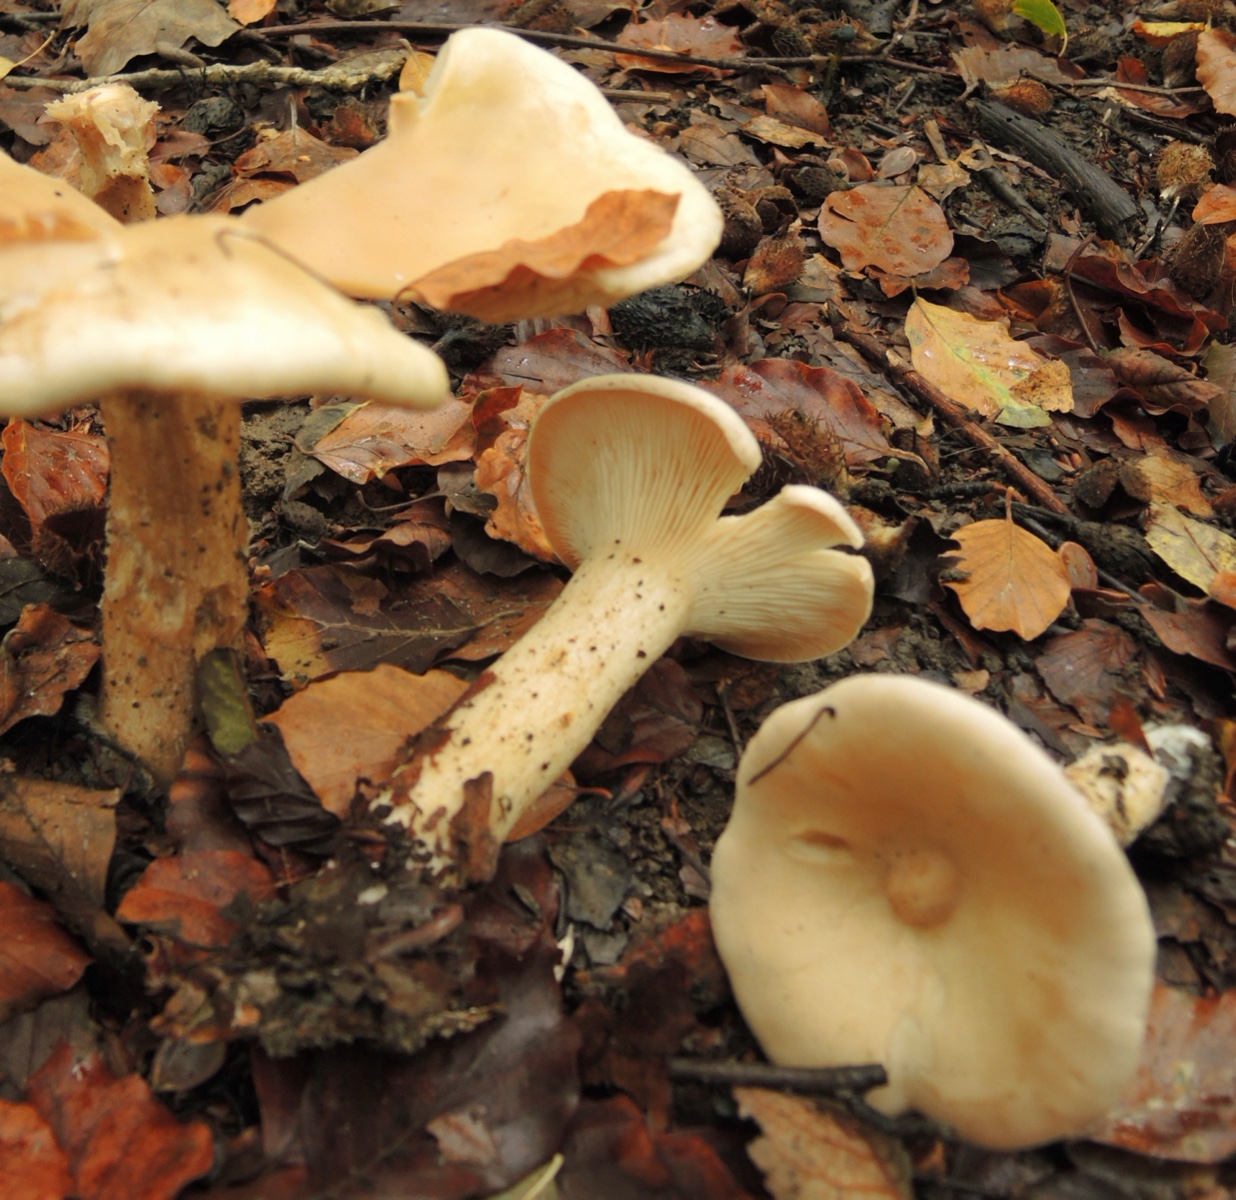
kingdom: Fungi
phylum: Basidiomycota
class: Agaricomycetes
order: Agaricales
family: Tricholomataceae
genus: Infundibulicybe
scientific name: Infundibulicybe geotropa
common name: stor tragthat
